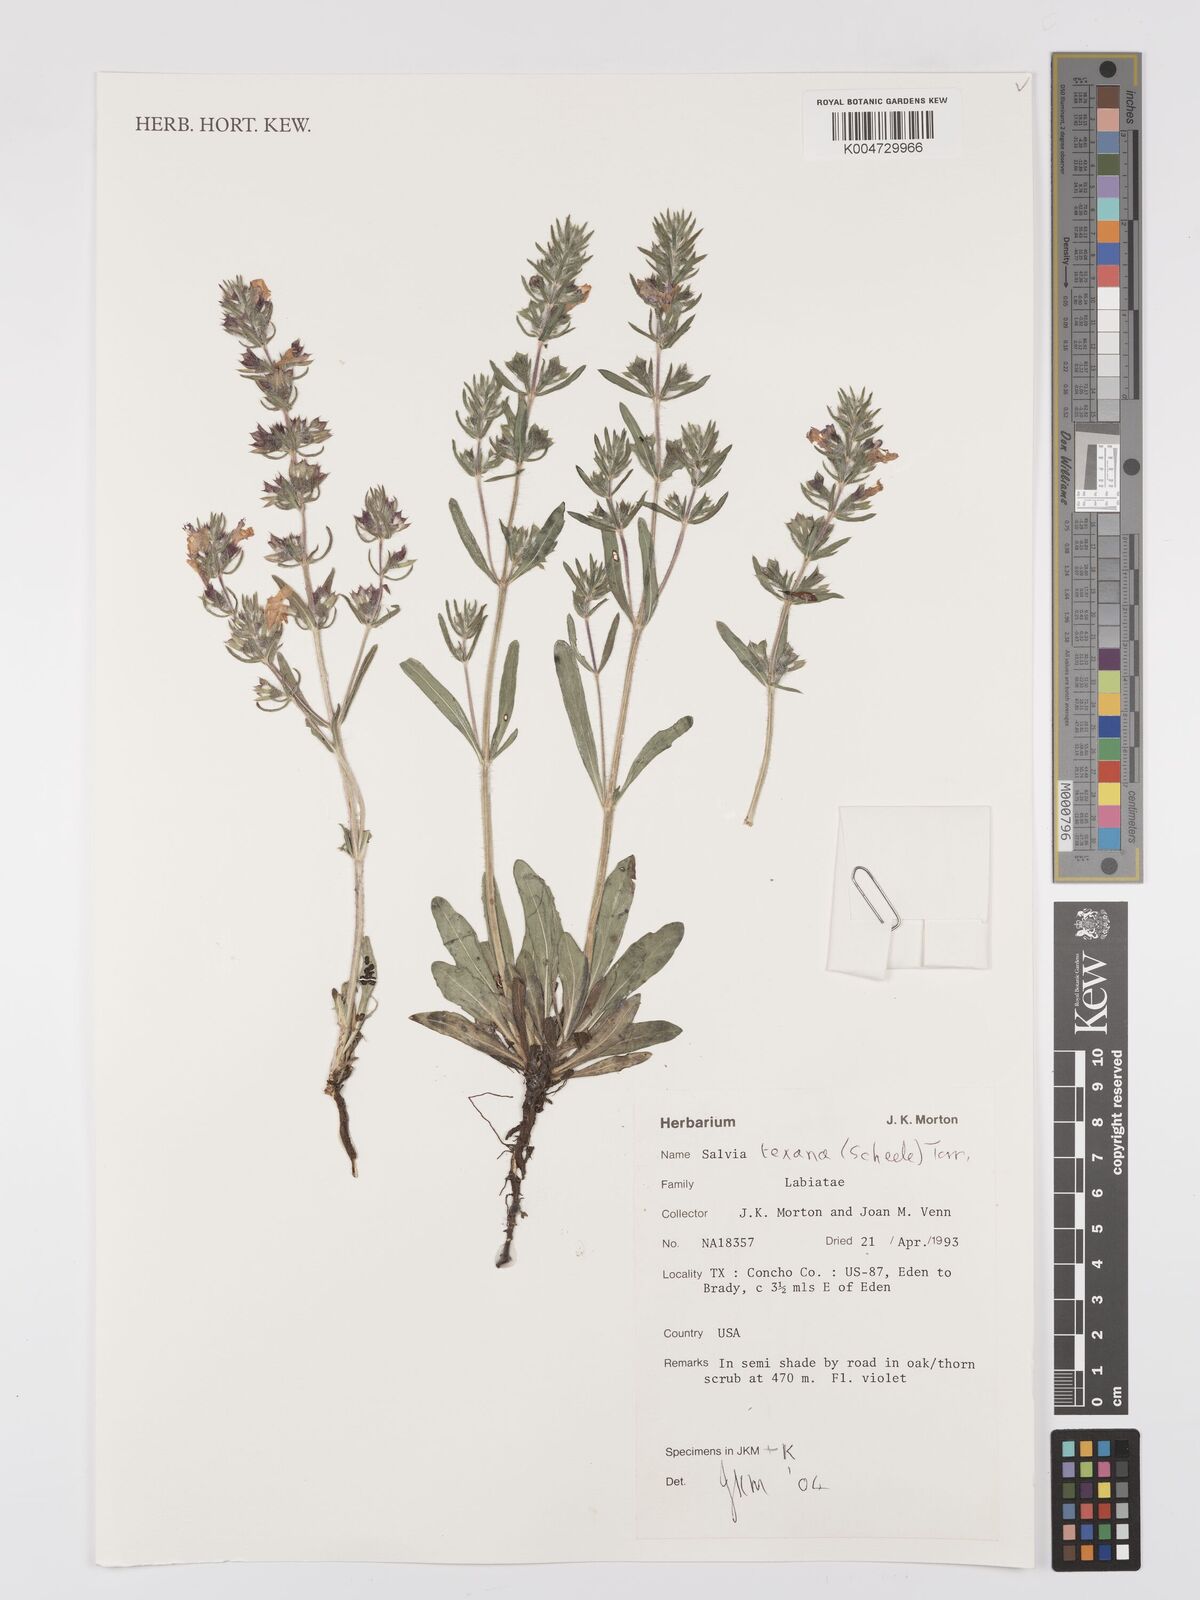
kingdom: Plantae
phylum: Tracheophyta
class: Magnoliopsida
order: Lamiales
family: Lamiaceae
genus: Salvia
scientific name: Salvia texana
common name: Texas sage
